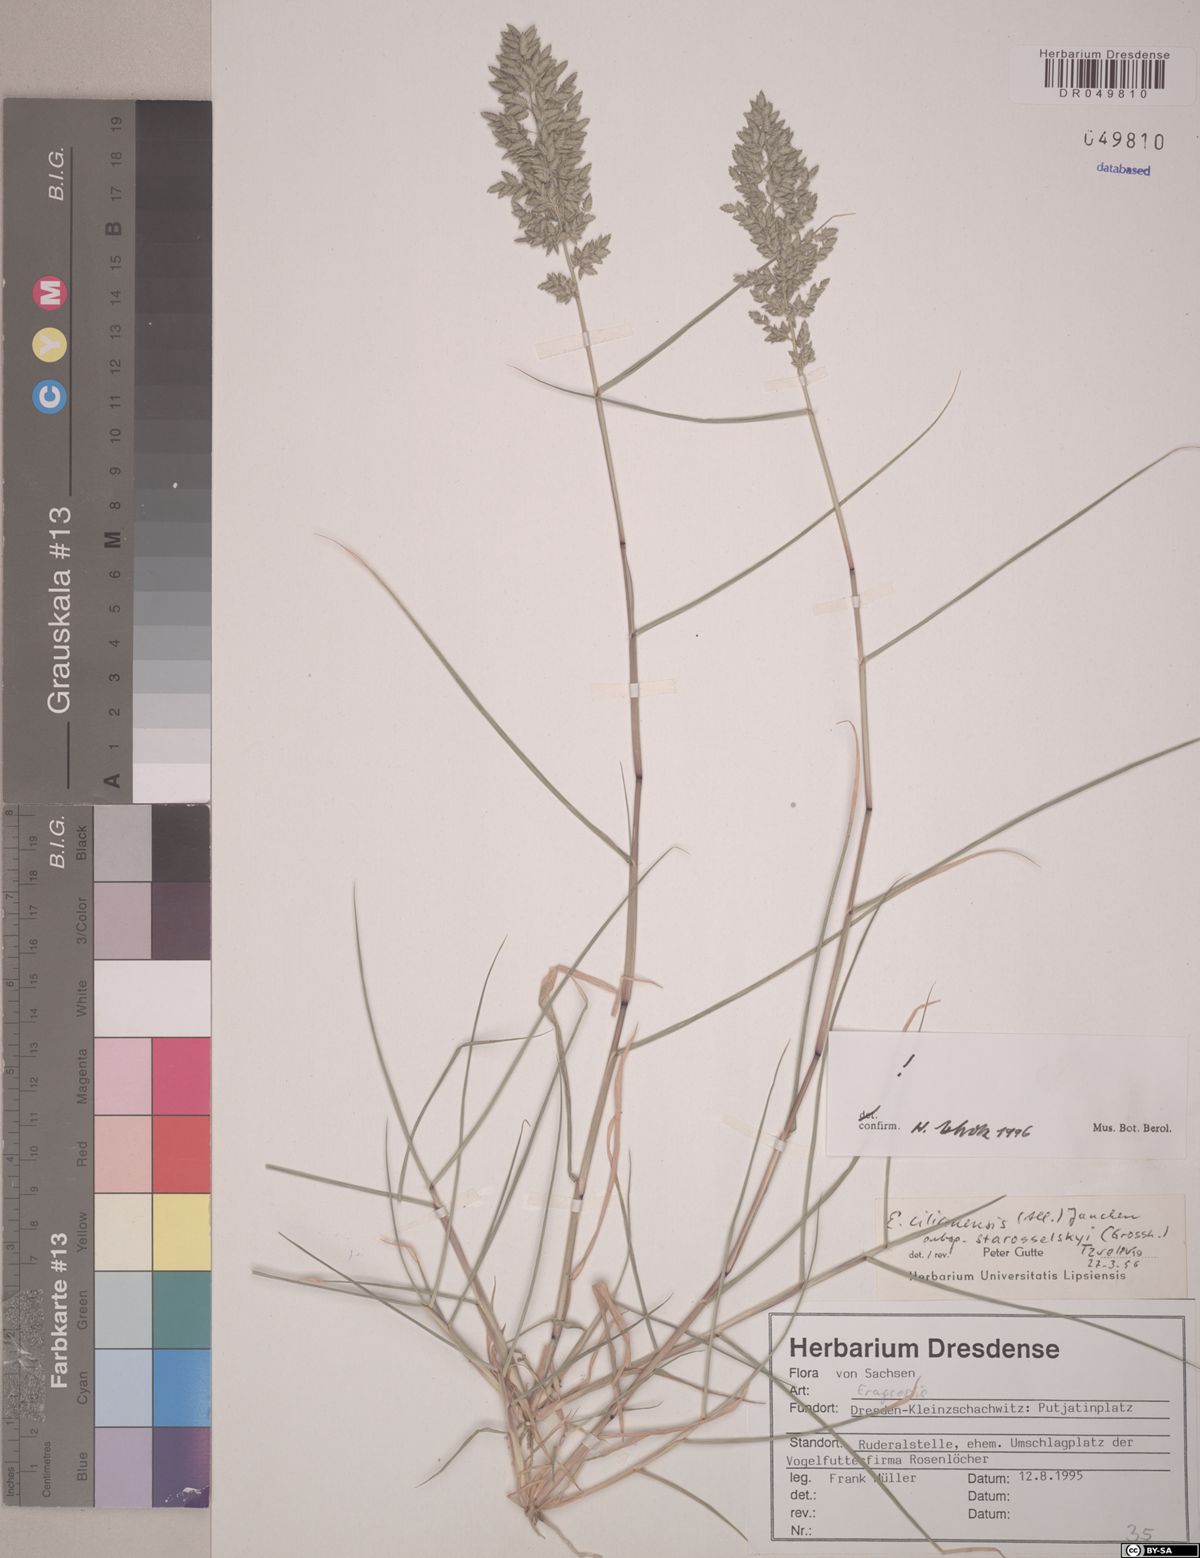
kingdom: Plantae
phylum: Tracheophyta
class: Liliopsida
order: Poales
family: Poaceae
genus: Eragrostis
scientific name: Eragrostis cilianensis
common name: Stinkgrass
